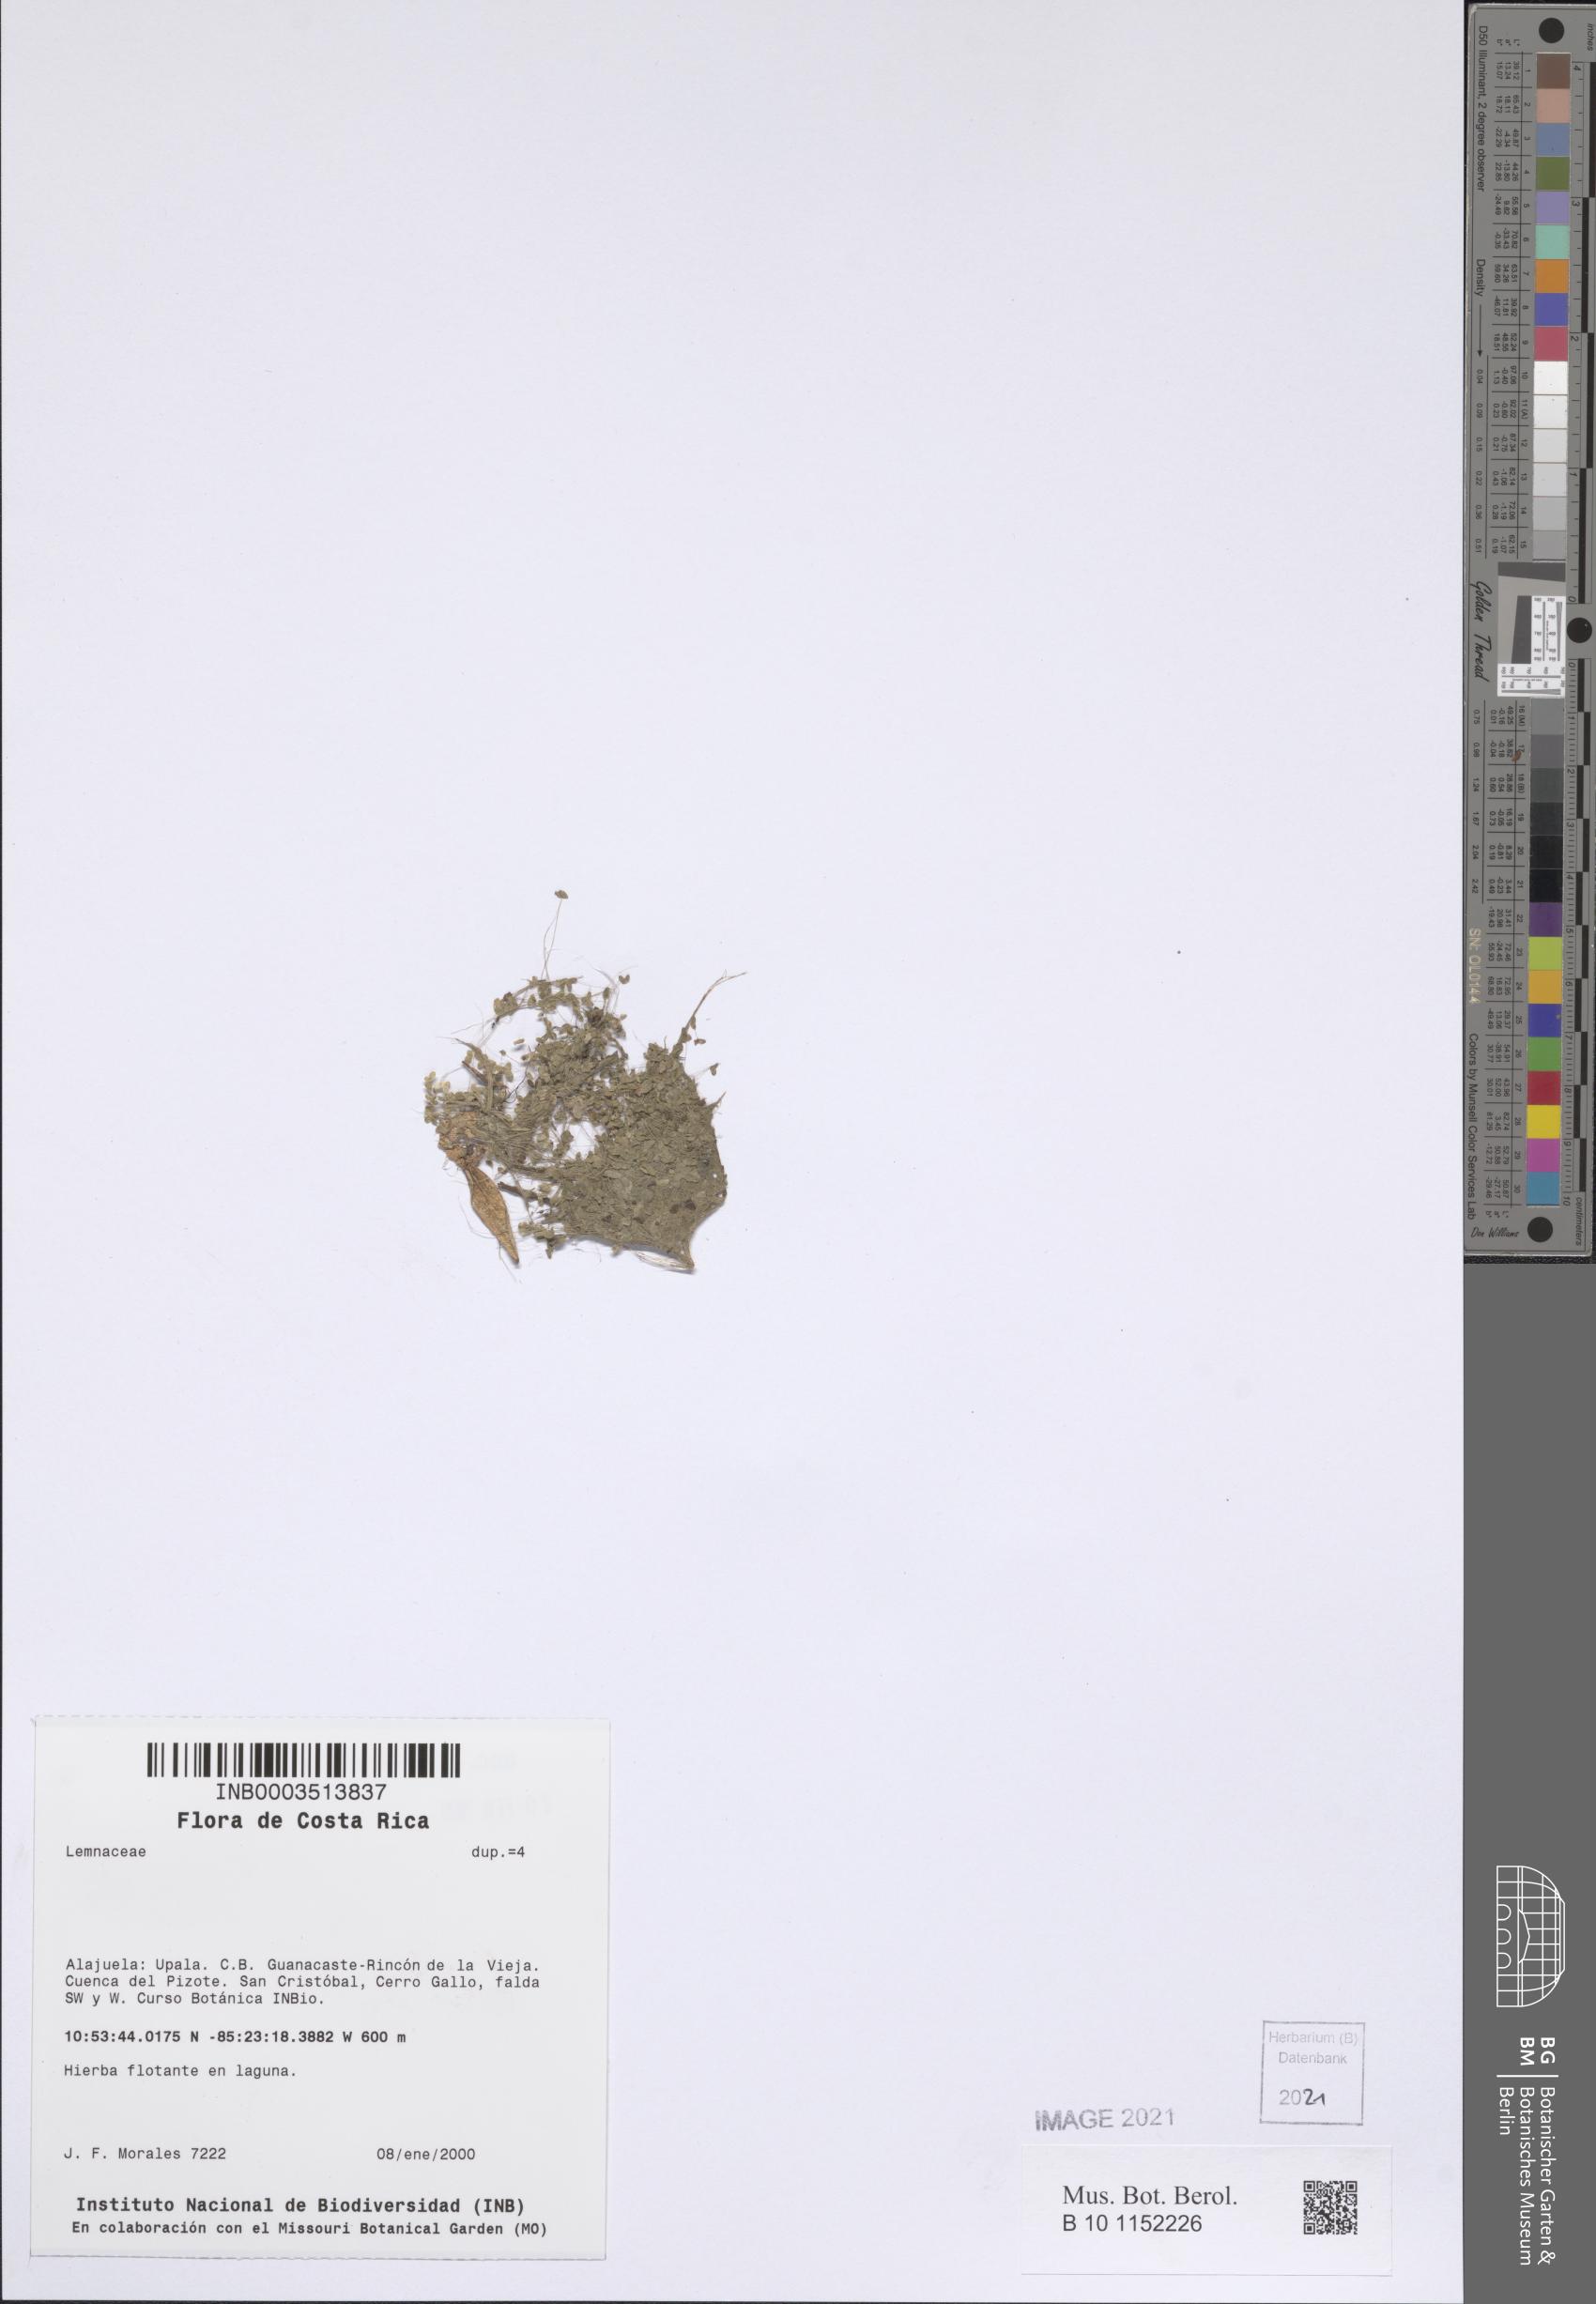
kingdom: Plantae
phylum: Tracheophyta
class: Magnoliopsida
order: Myrtales
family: Melastomataceae
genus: Miconia
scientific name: Miconia paleacea
